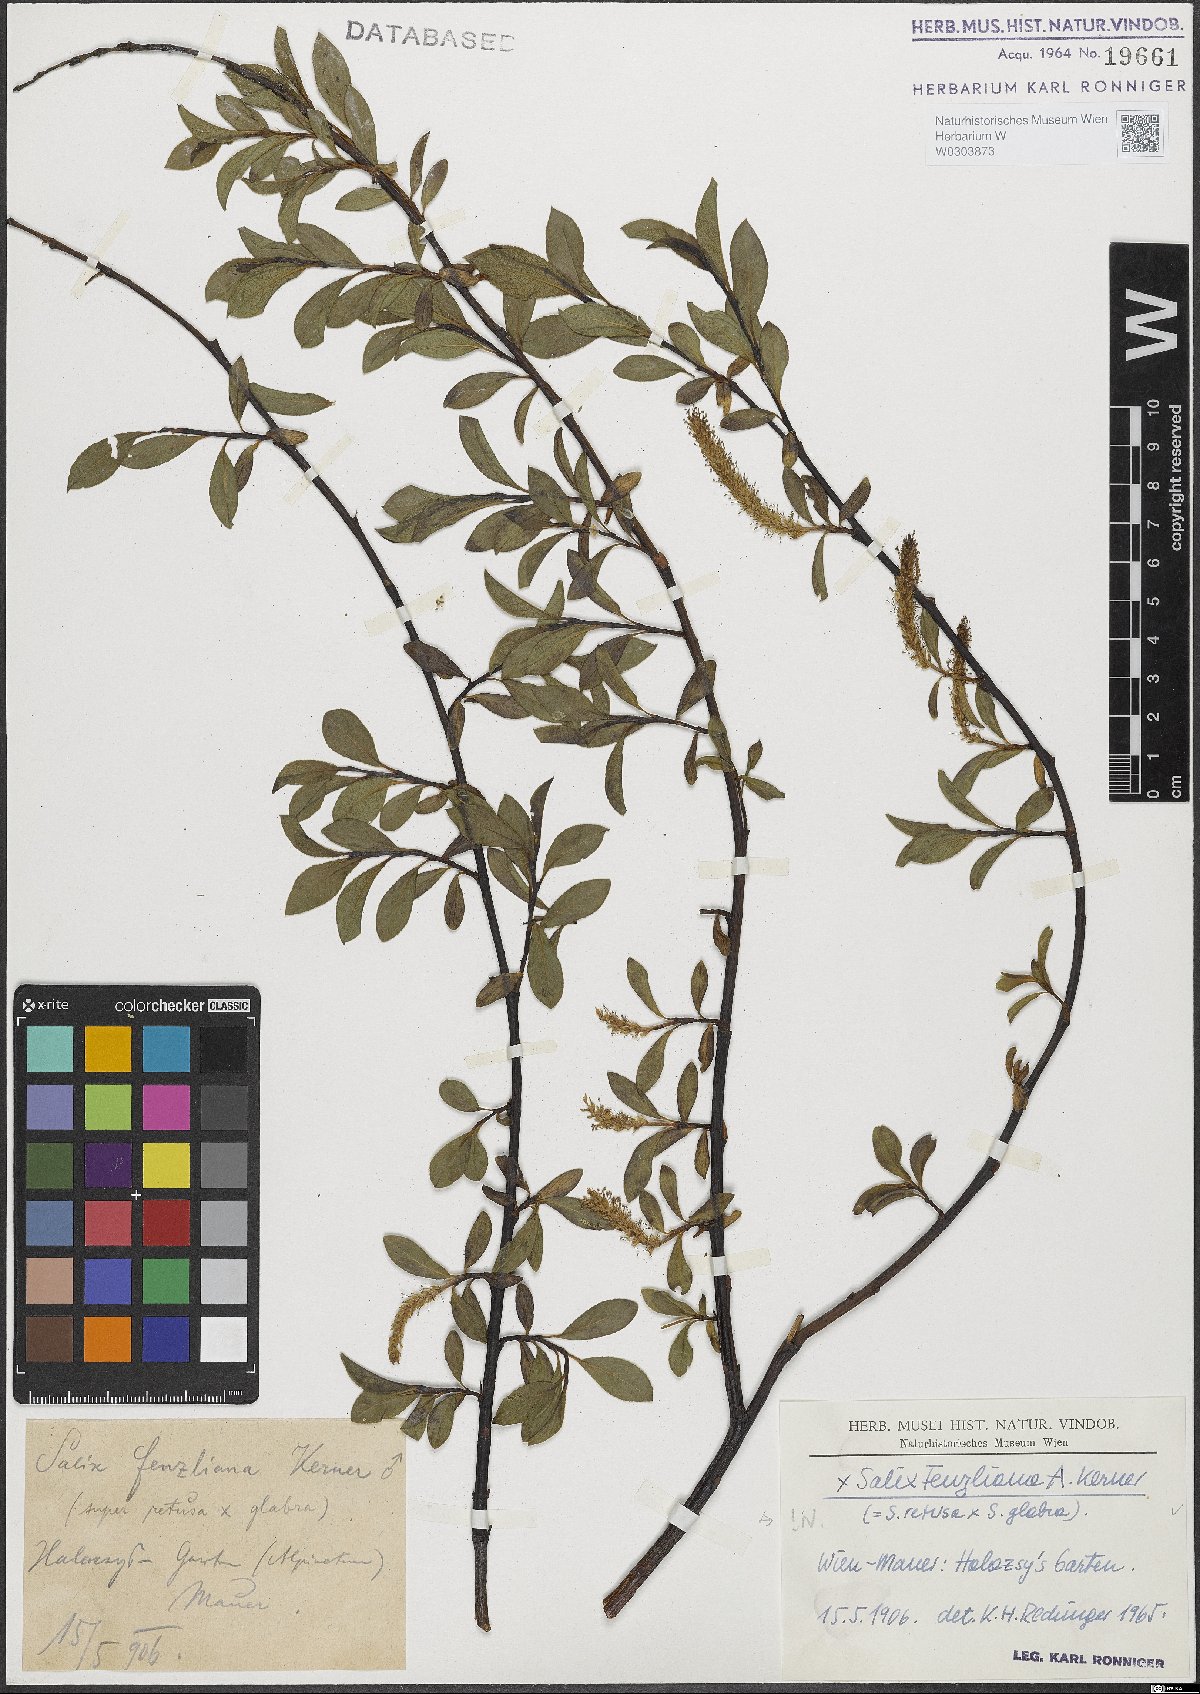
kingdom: Plantae
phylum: Tracheophyta
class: Magnoliopsida
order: Malpighiales
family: Salicaceae
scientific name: Salicaceae
